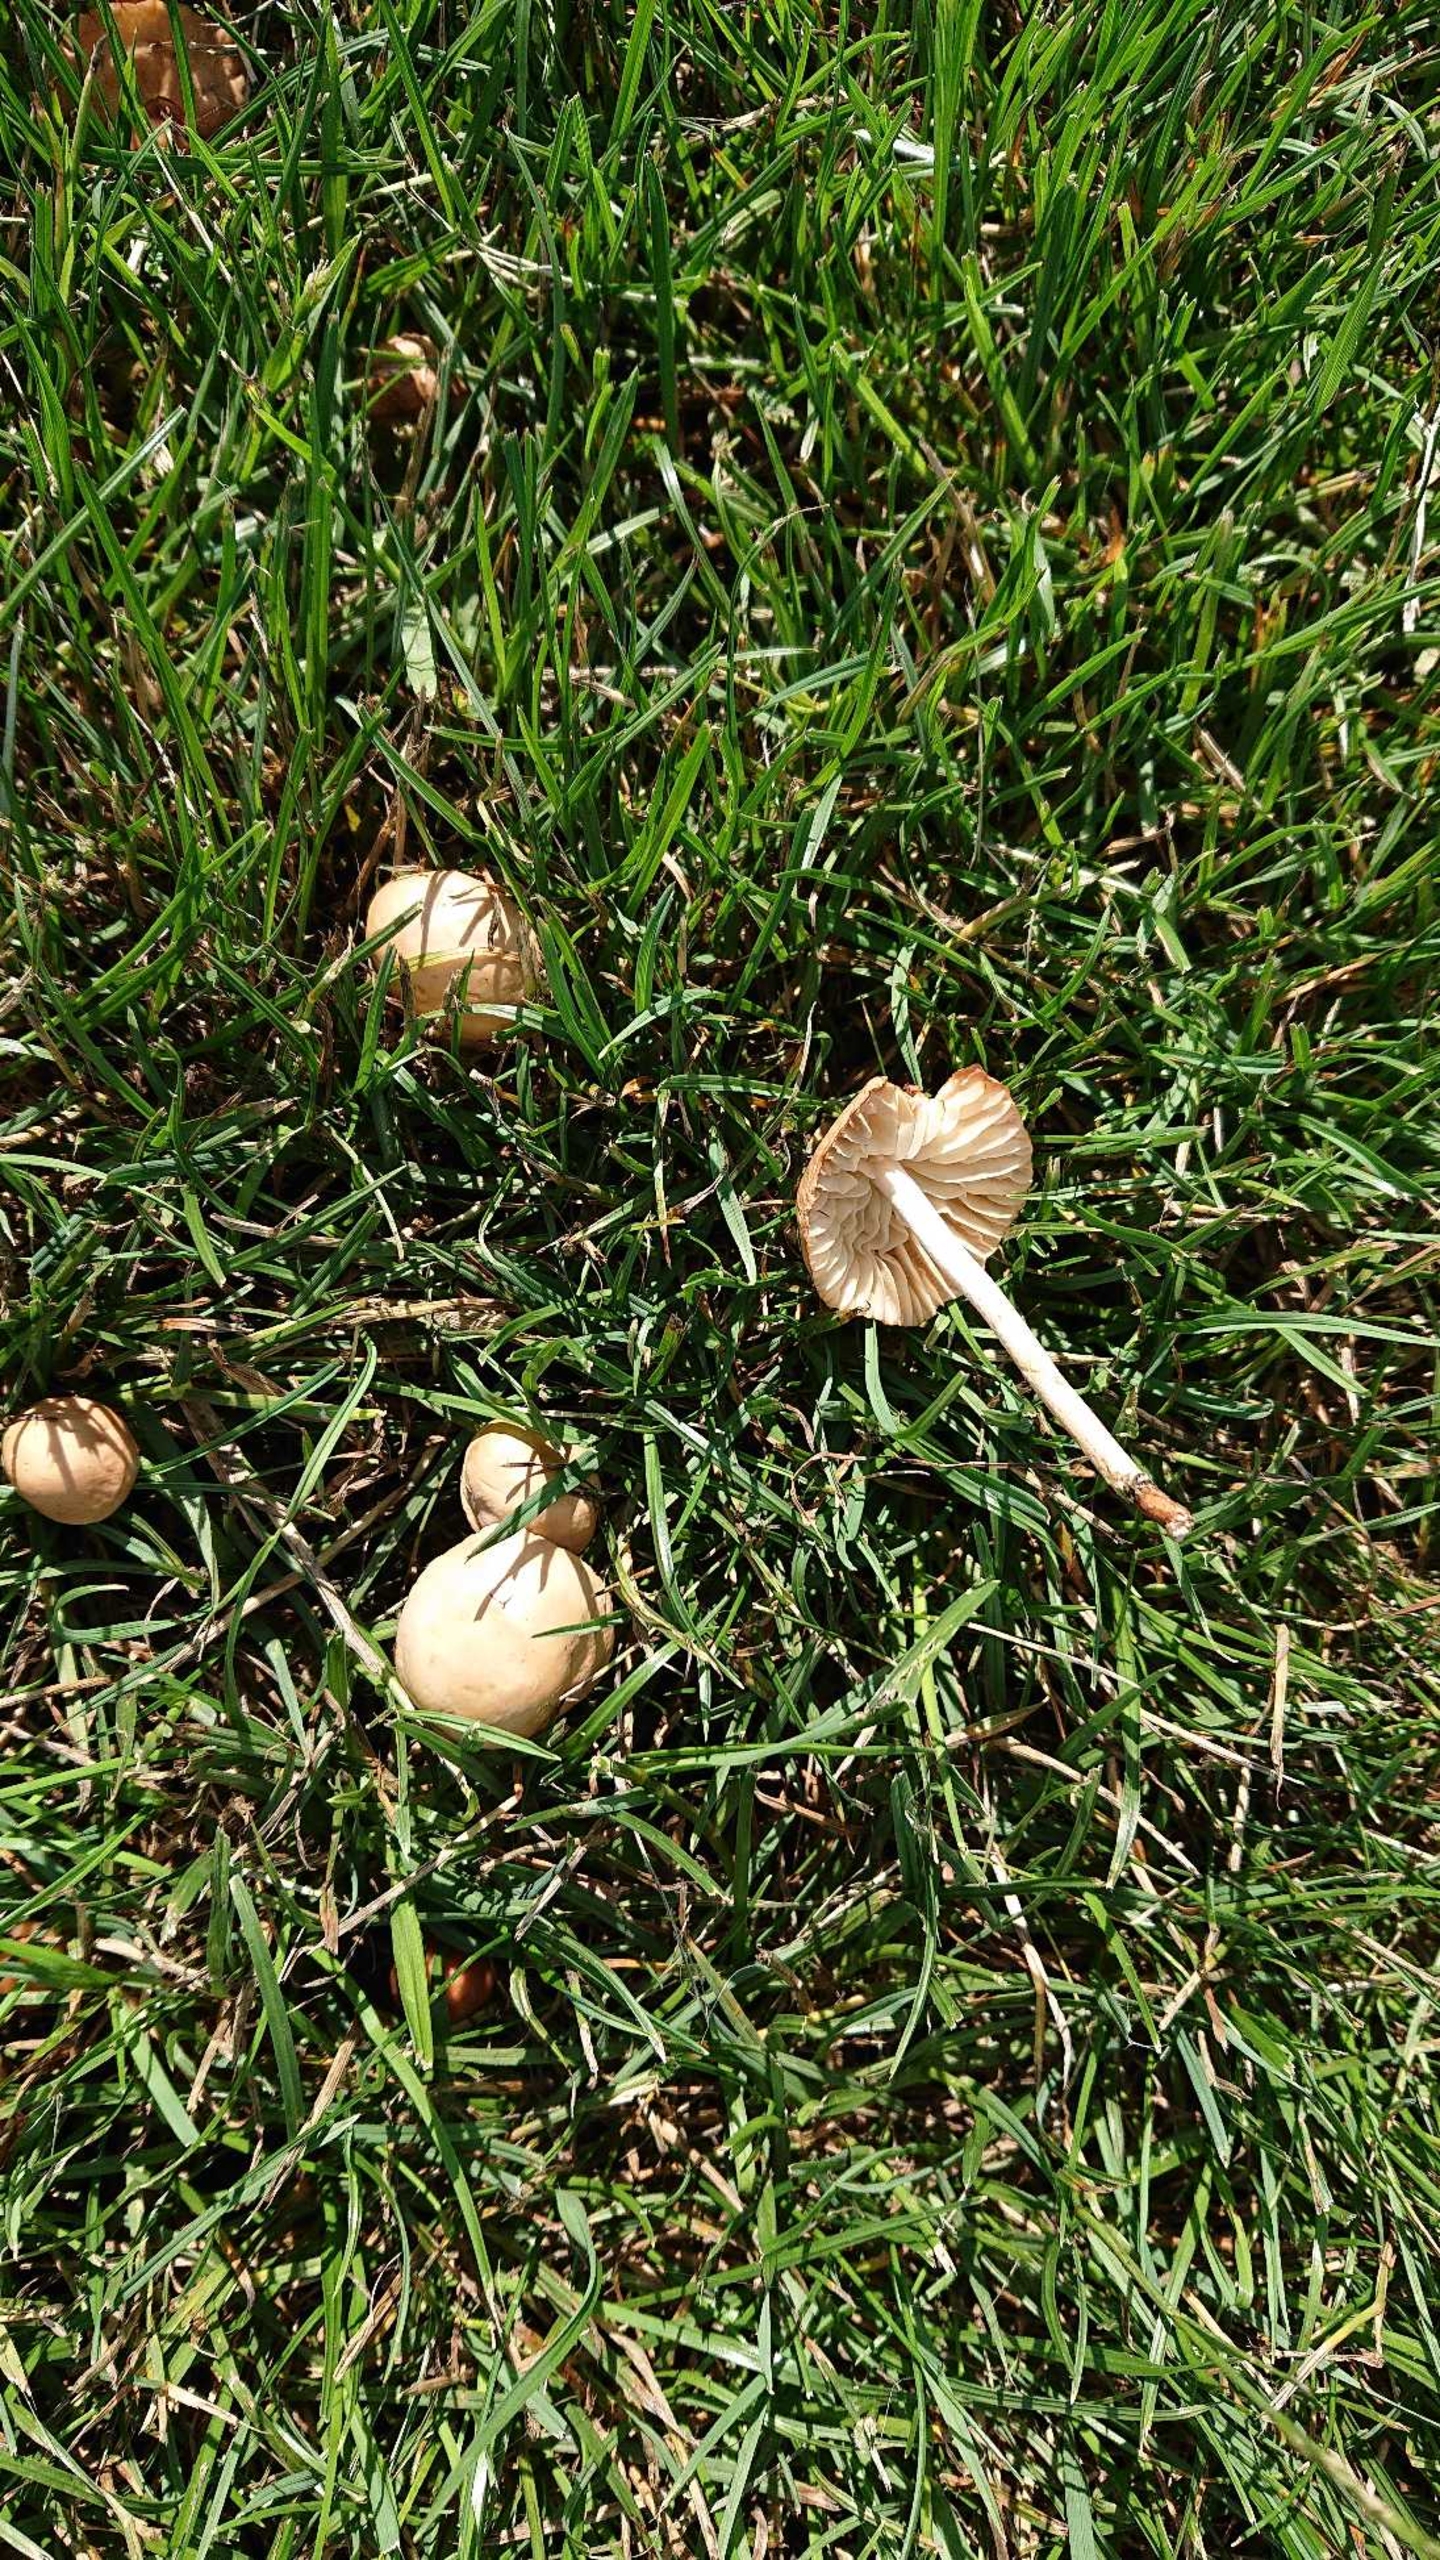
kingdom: Fungi
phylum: Basidiomycota
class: Agaricomycetes
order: Agaricales
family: Marasmiaceae
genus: Marasmius
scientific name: Marasmius oreades
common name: Elledans-bruskhat
